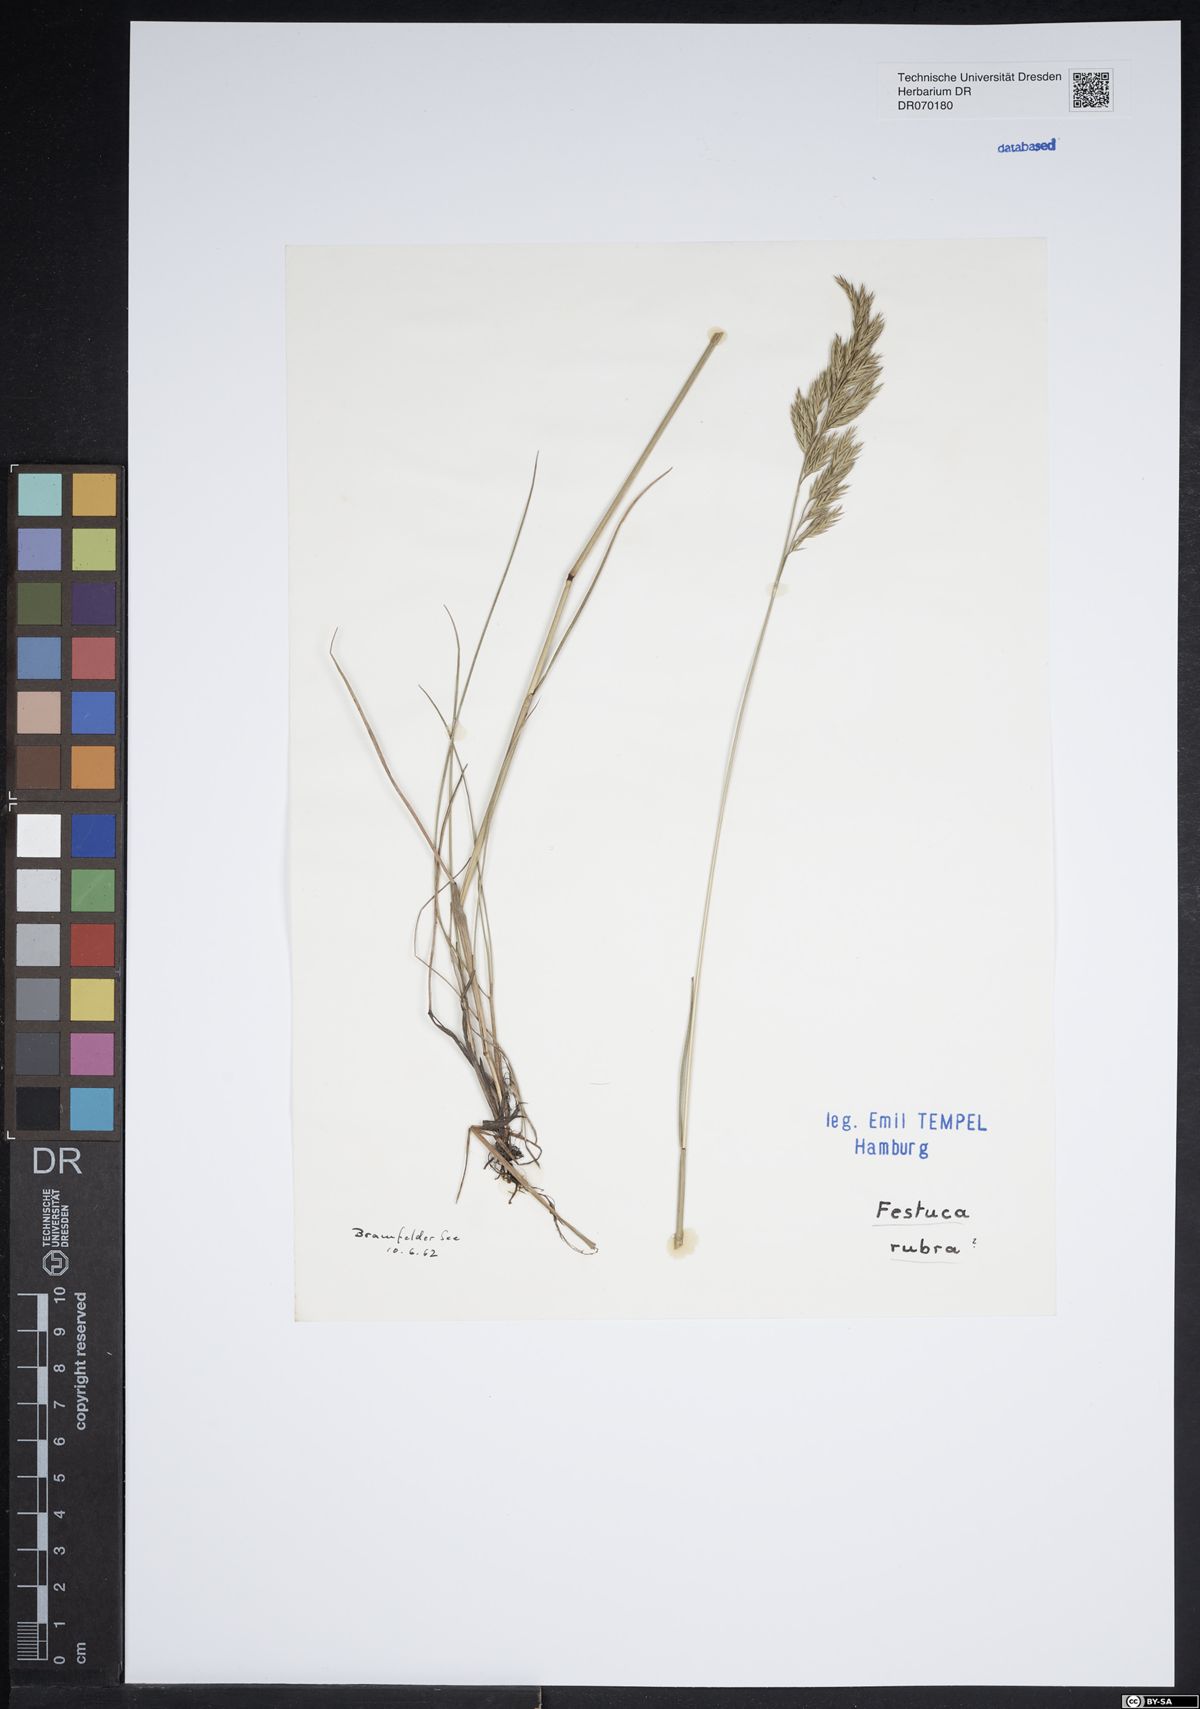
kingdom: Plantae
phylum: Tracheophyta
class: Liliopsida
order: Poales
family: Poaceae
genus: Festuca
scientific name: Festuca rubra
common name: Red fescue
